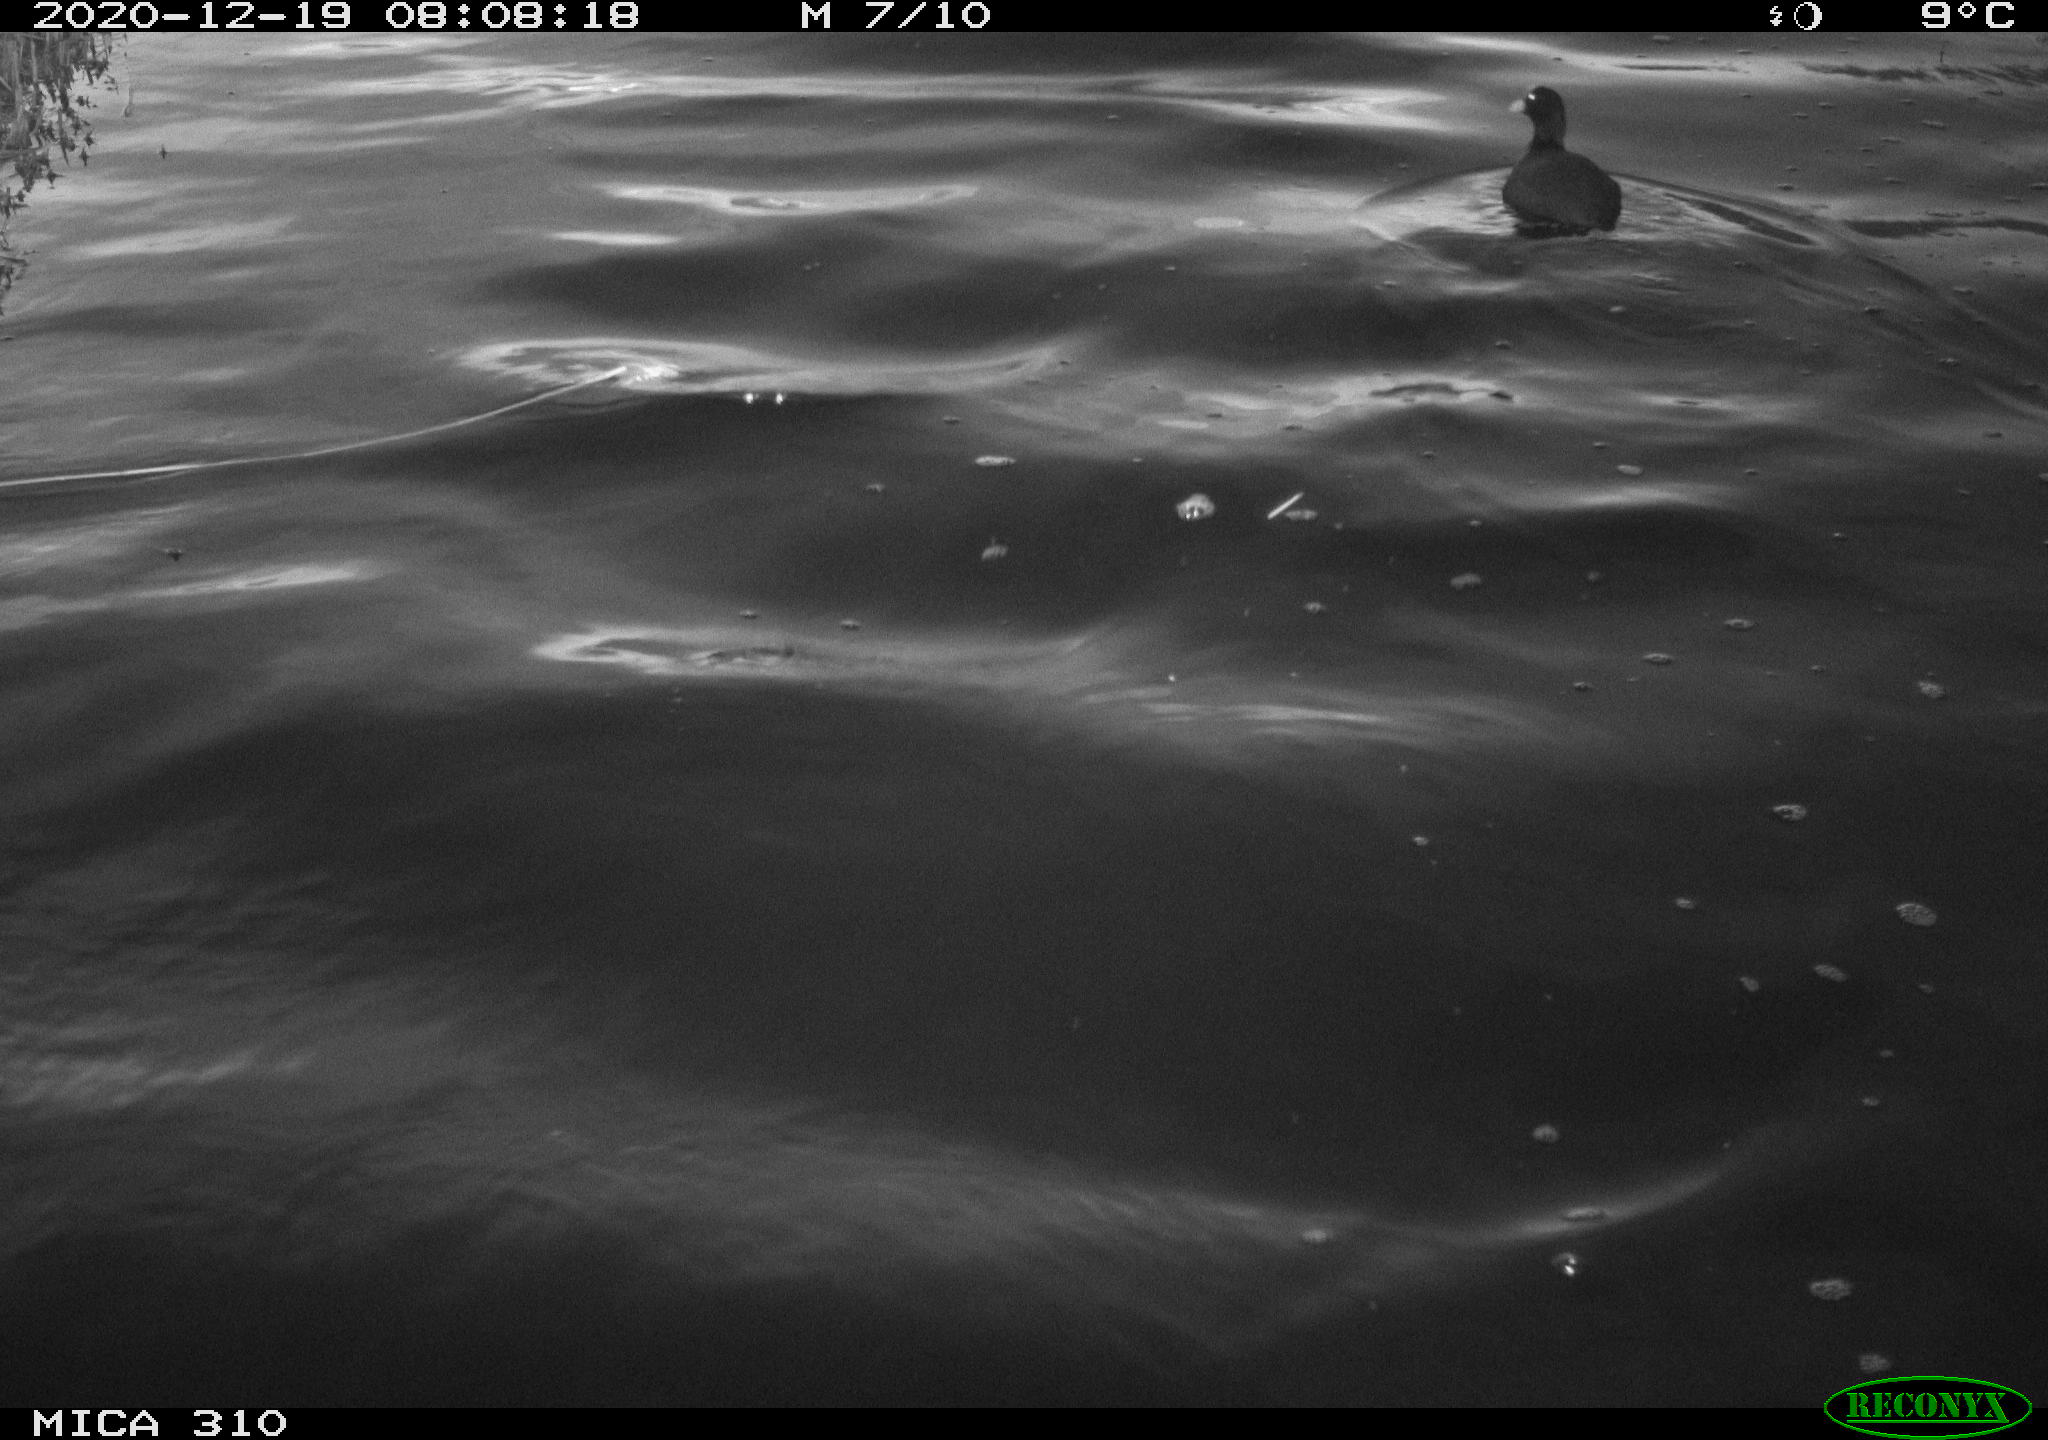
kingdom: Animalia
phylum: Chordata
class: Aves
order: Gruiformes
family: Rallidae
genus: Fulica
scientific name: Fulica atra
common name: Eurasian coot
